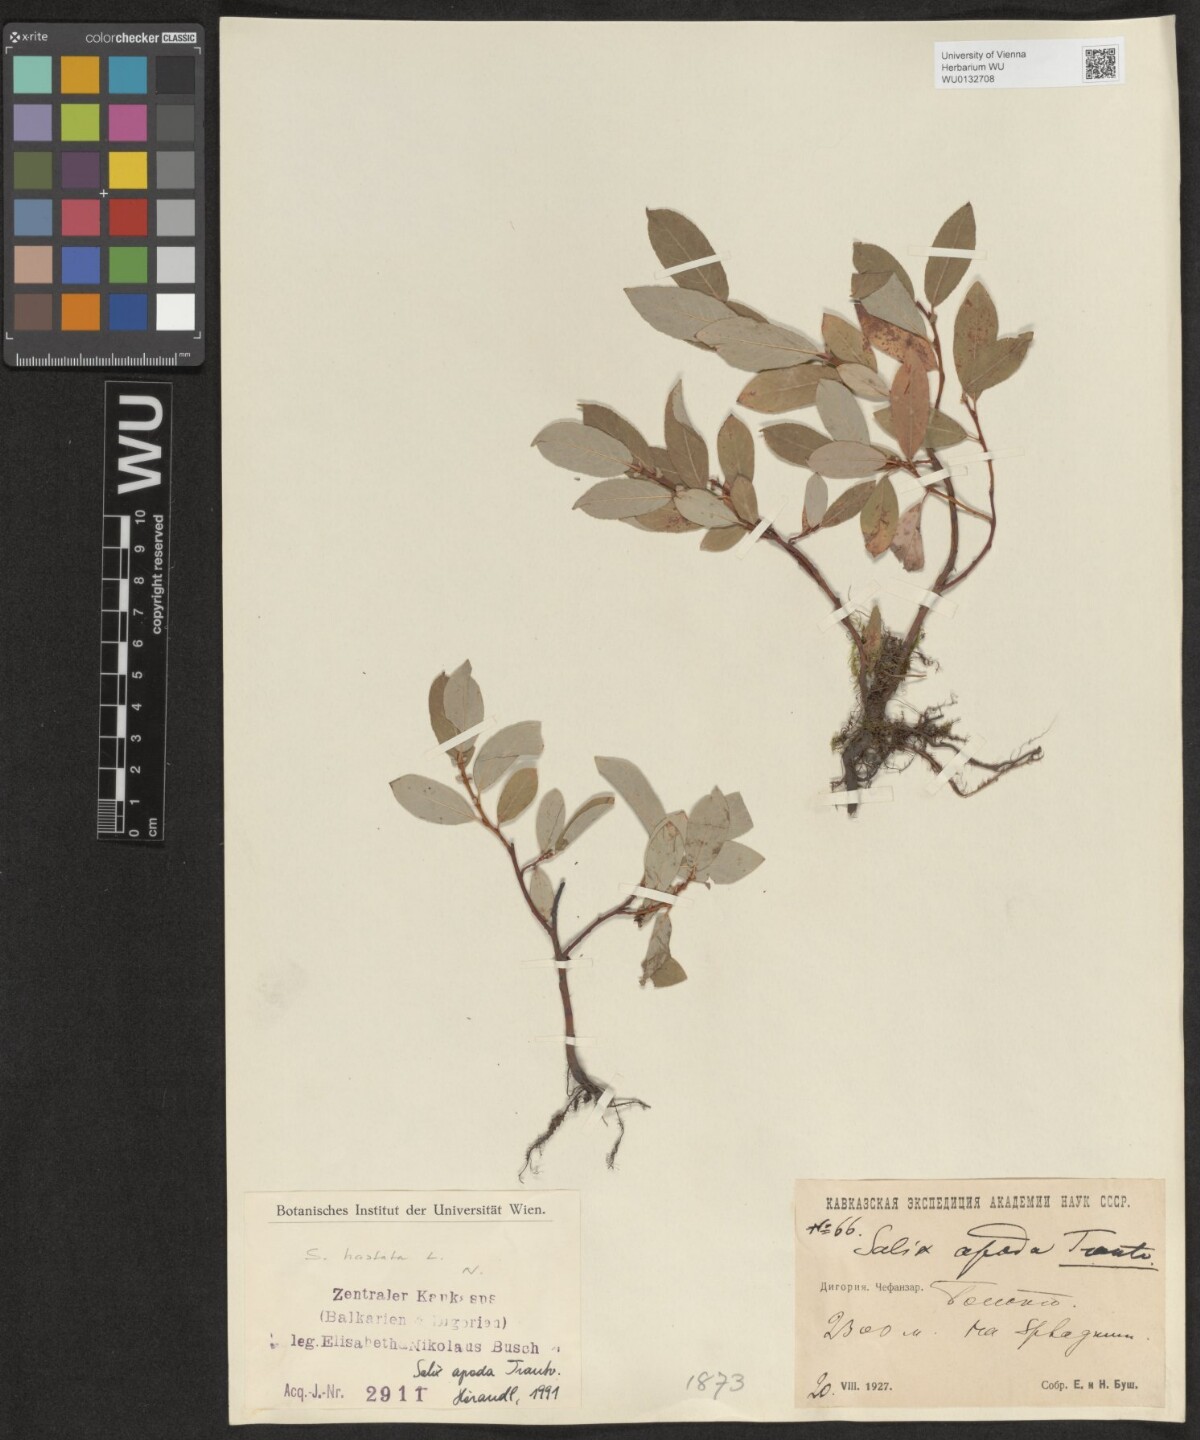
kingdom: Plantae
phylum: Tracheophyta
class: Magnoliopsida
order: Malpighiales
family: Salicaceae
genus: Salix
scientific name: Salix apoda
